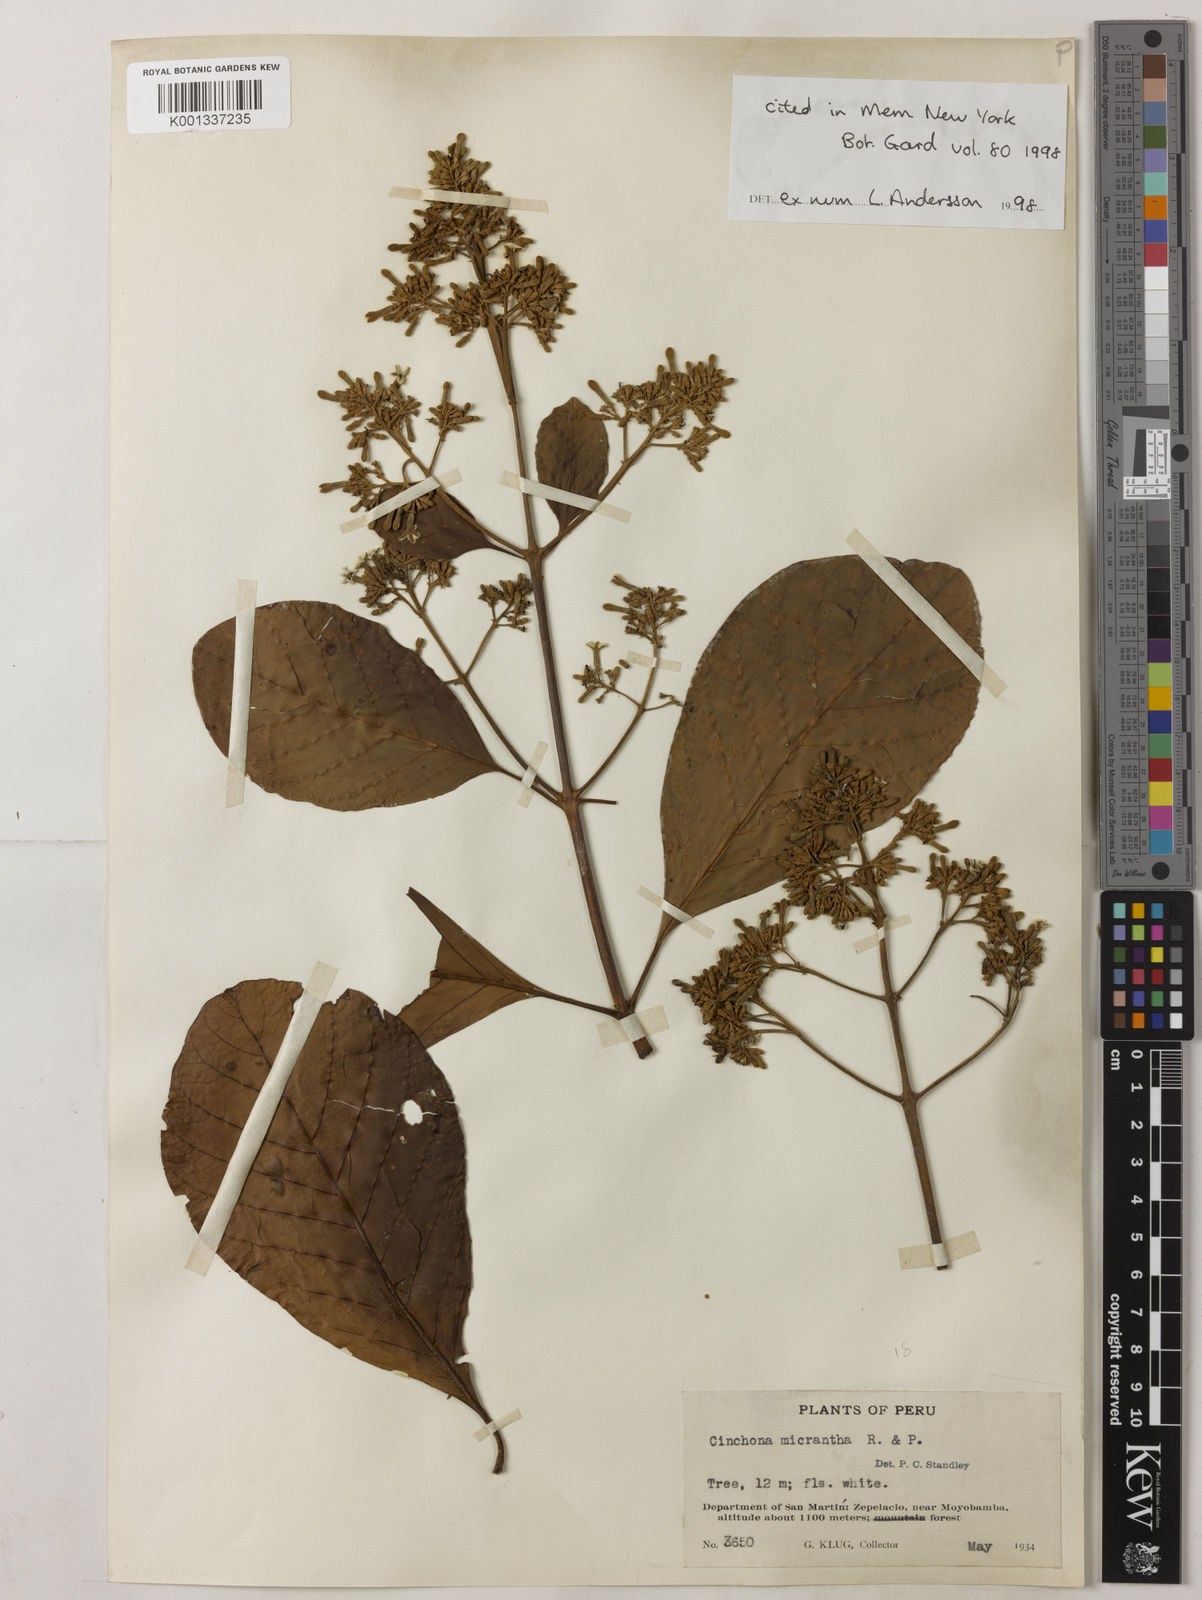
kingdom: Plantae
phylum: Tracheophyta
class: Magnoliopsida
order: Gentianales
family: Rubiaceae
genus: Cinchona
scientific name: Cinchona micrantha
